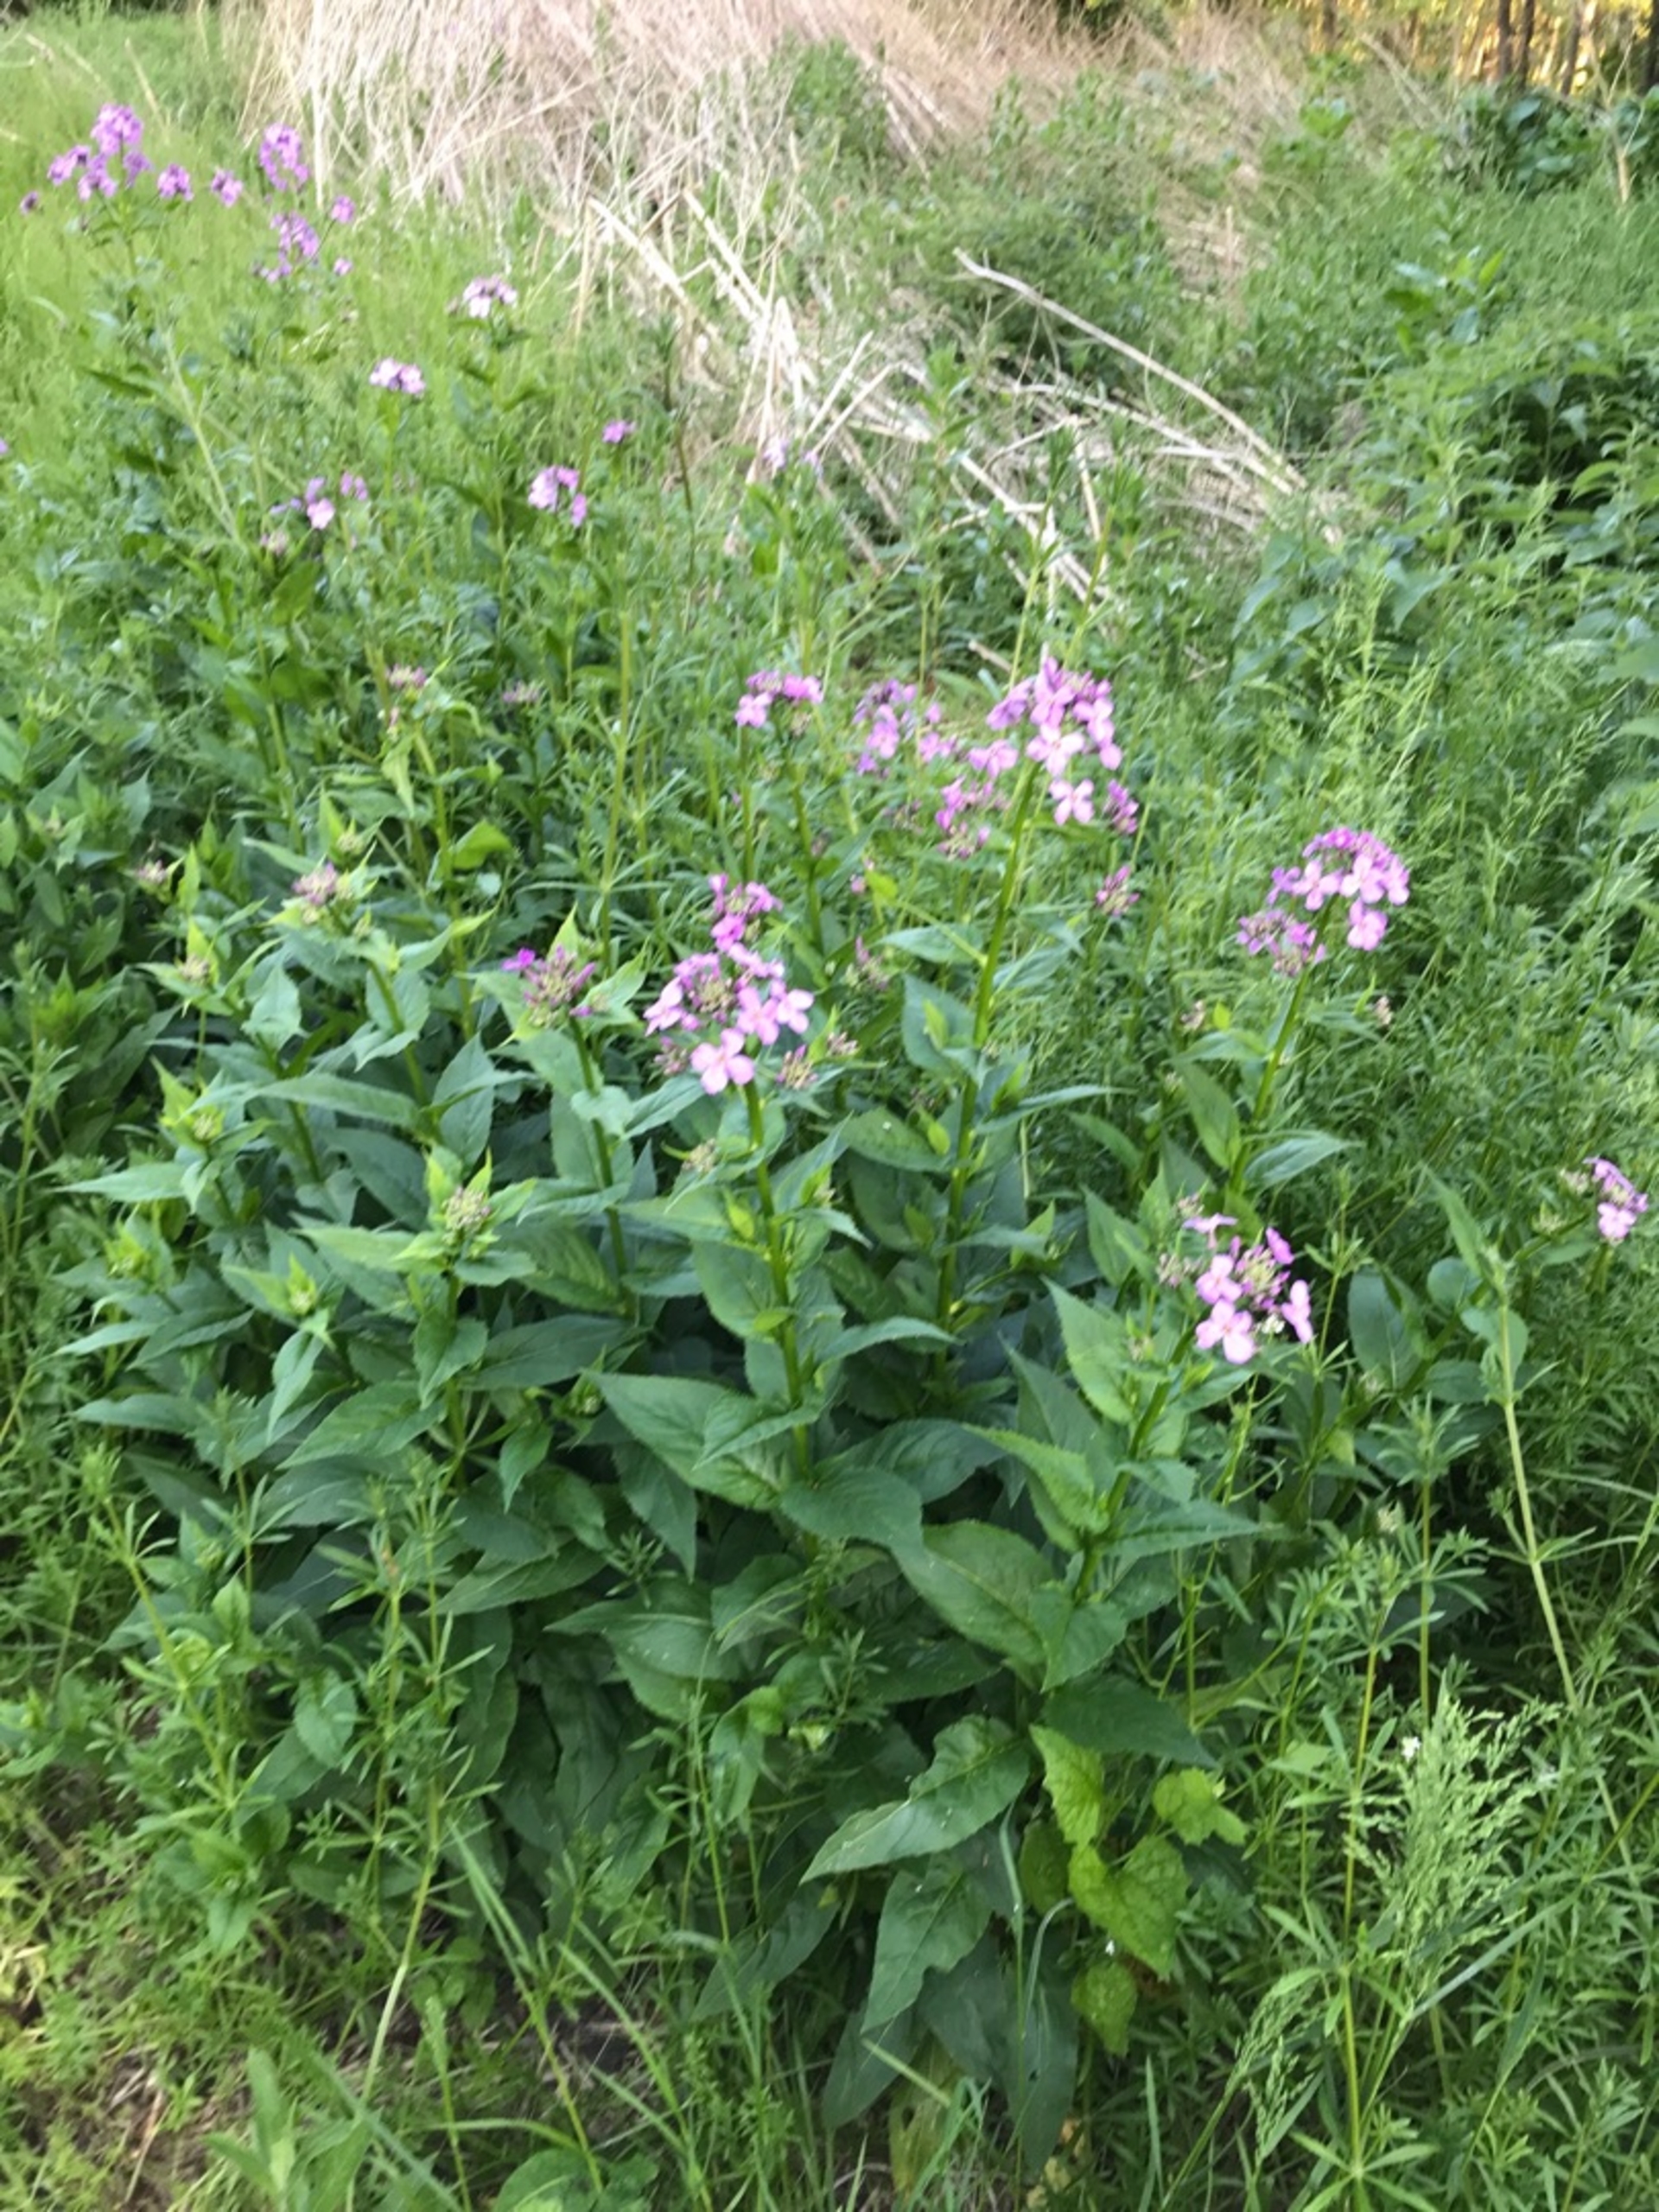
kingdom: Plantae
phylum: Tracheophyta
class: Magnoliopsida
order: Brassicales
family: Brassicaceae
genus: Hesperis
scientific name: Hesperis matronalis
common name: Aftenstjerne
